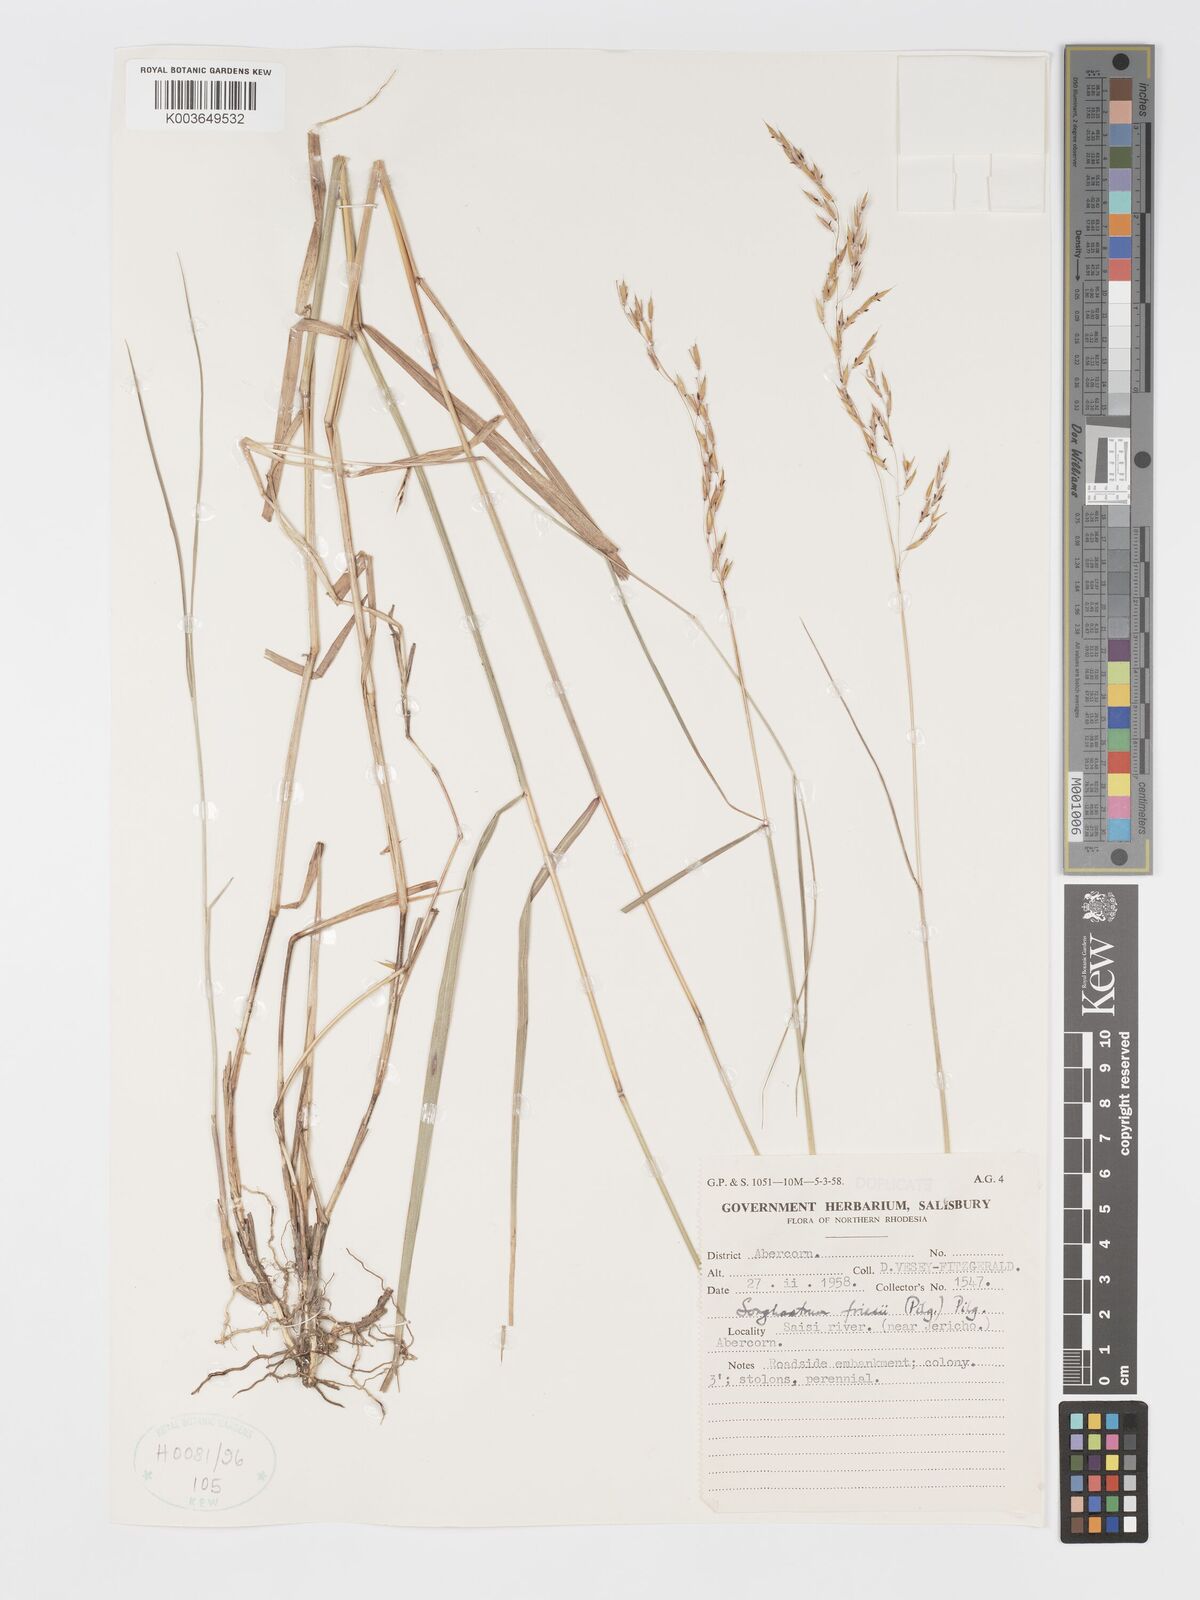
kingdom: Plantae
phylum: Tracheophyta
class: Liliopsida
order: Poales
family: Poaceae
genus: Sorghastrum
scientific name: Sorghastrum nudipes
